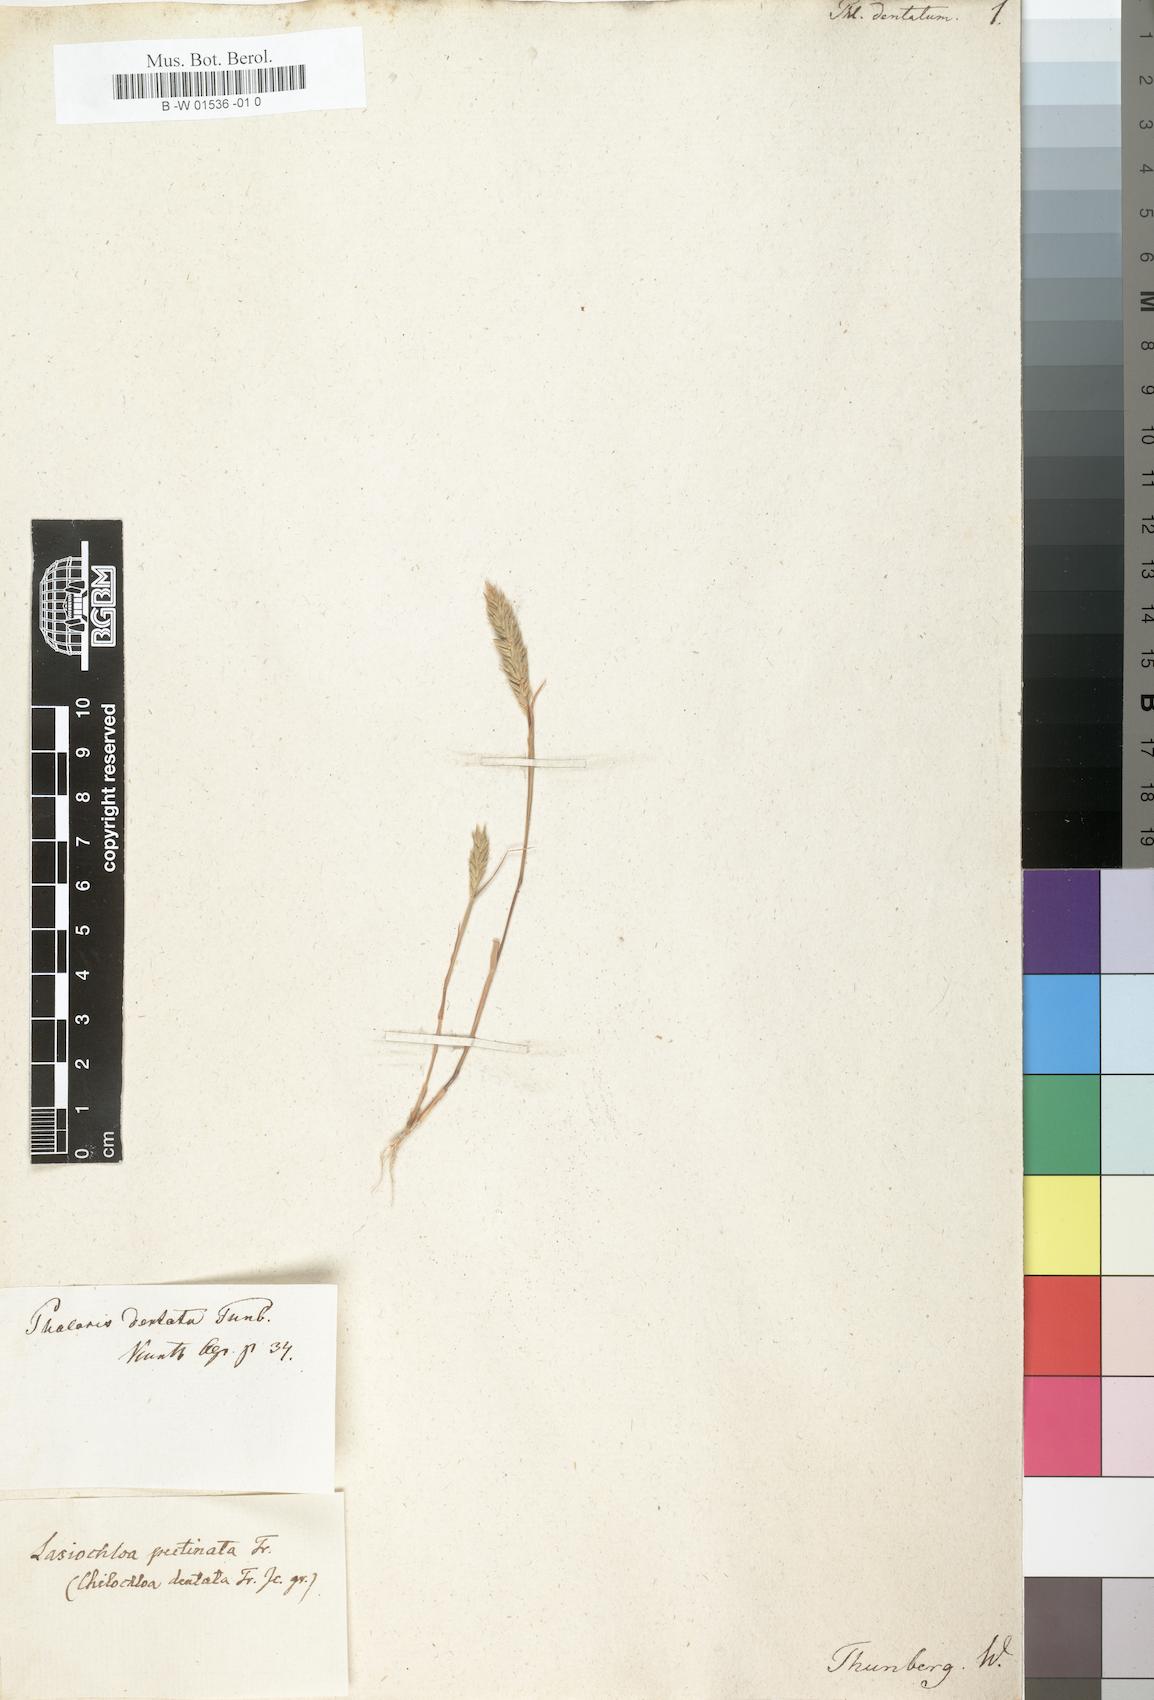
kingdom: Plantae
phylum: Tracheophyta
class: Liliopsida
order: Poales
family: Poaceae
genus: Pentameris
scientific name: Pentameris dentata
